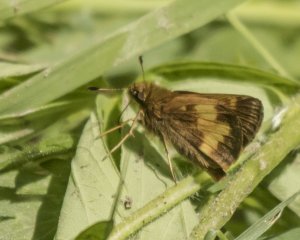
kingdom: Animalia
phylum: Arthropoda
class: Insecta
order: Lepidoptera
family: Hesperiidae
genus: Lon
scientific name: Lon hobomok
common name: Hobomok Skipper
